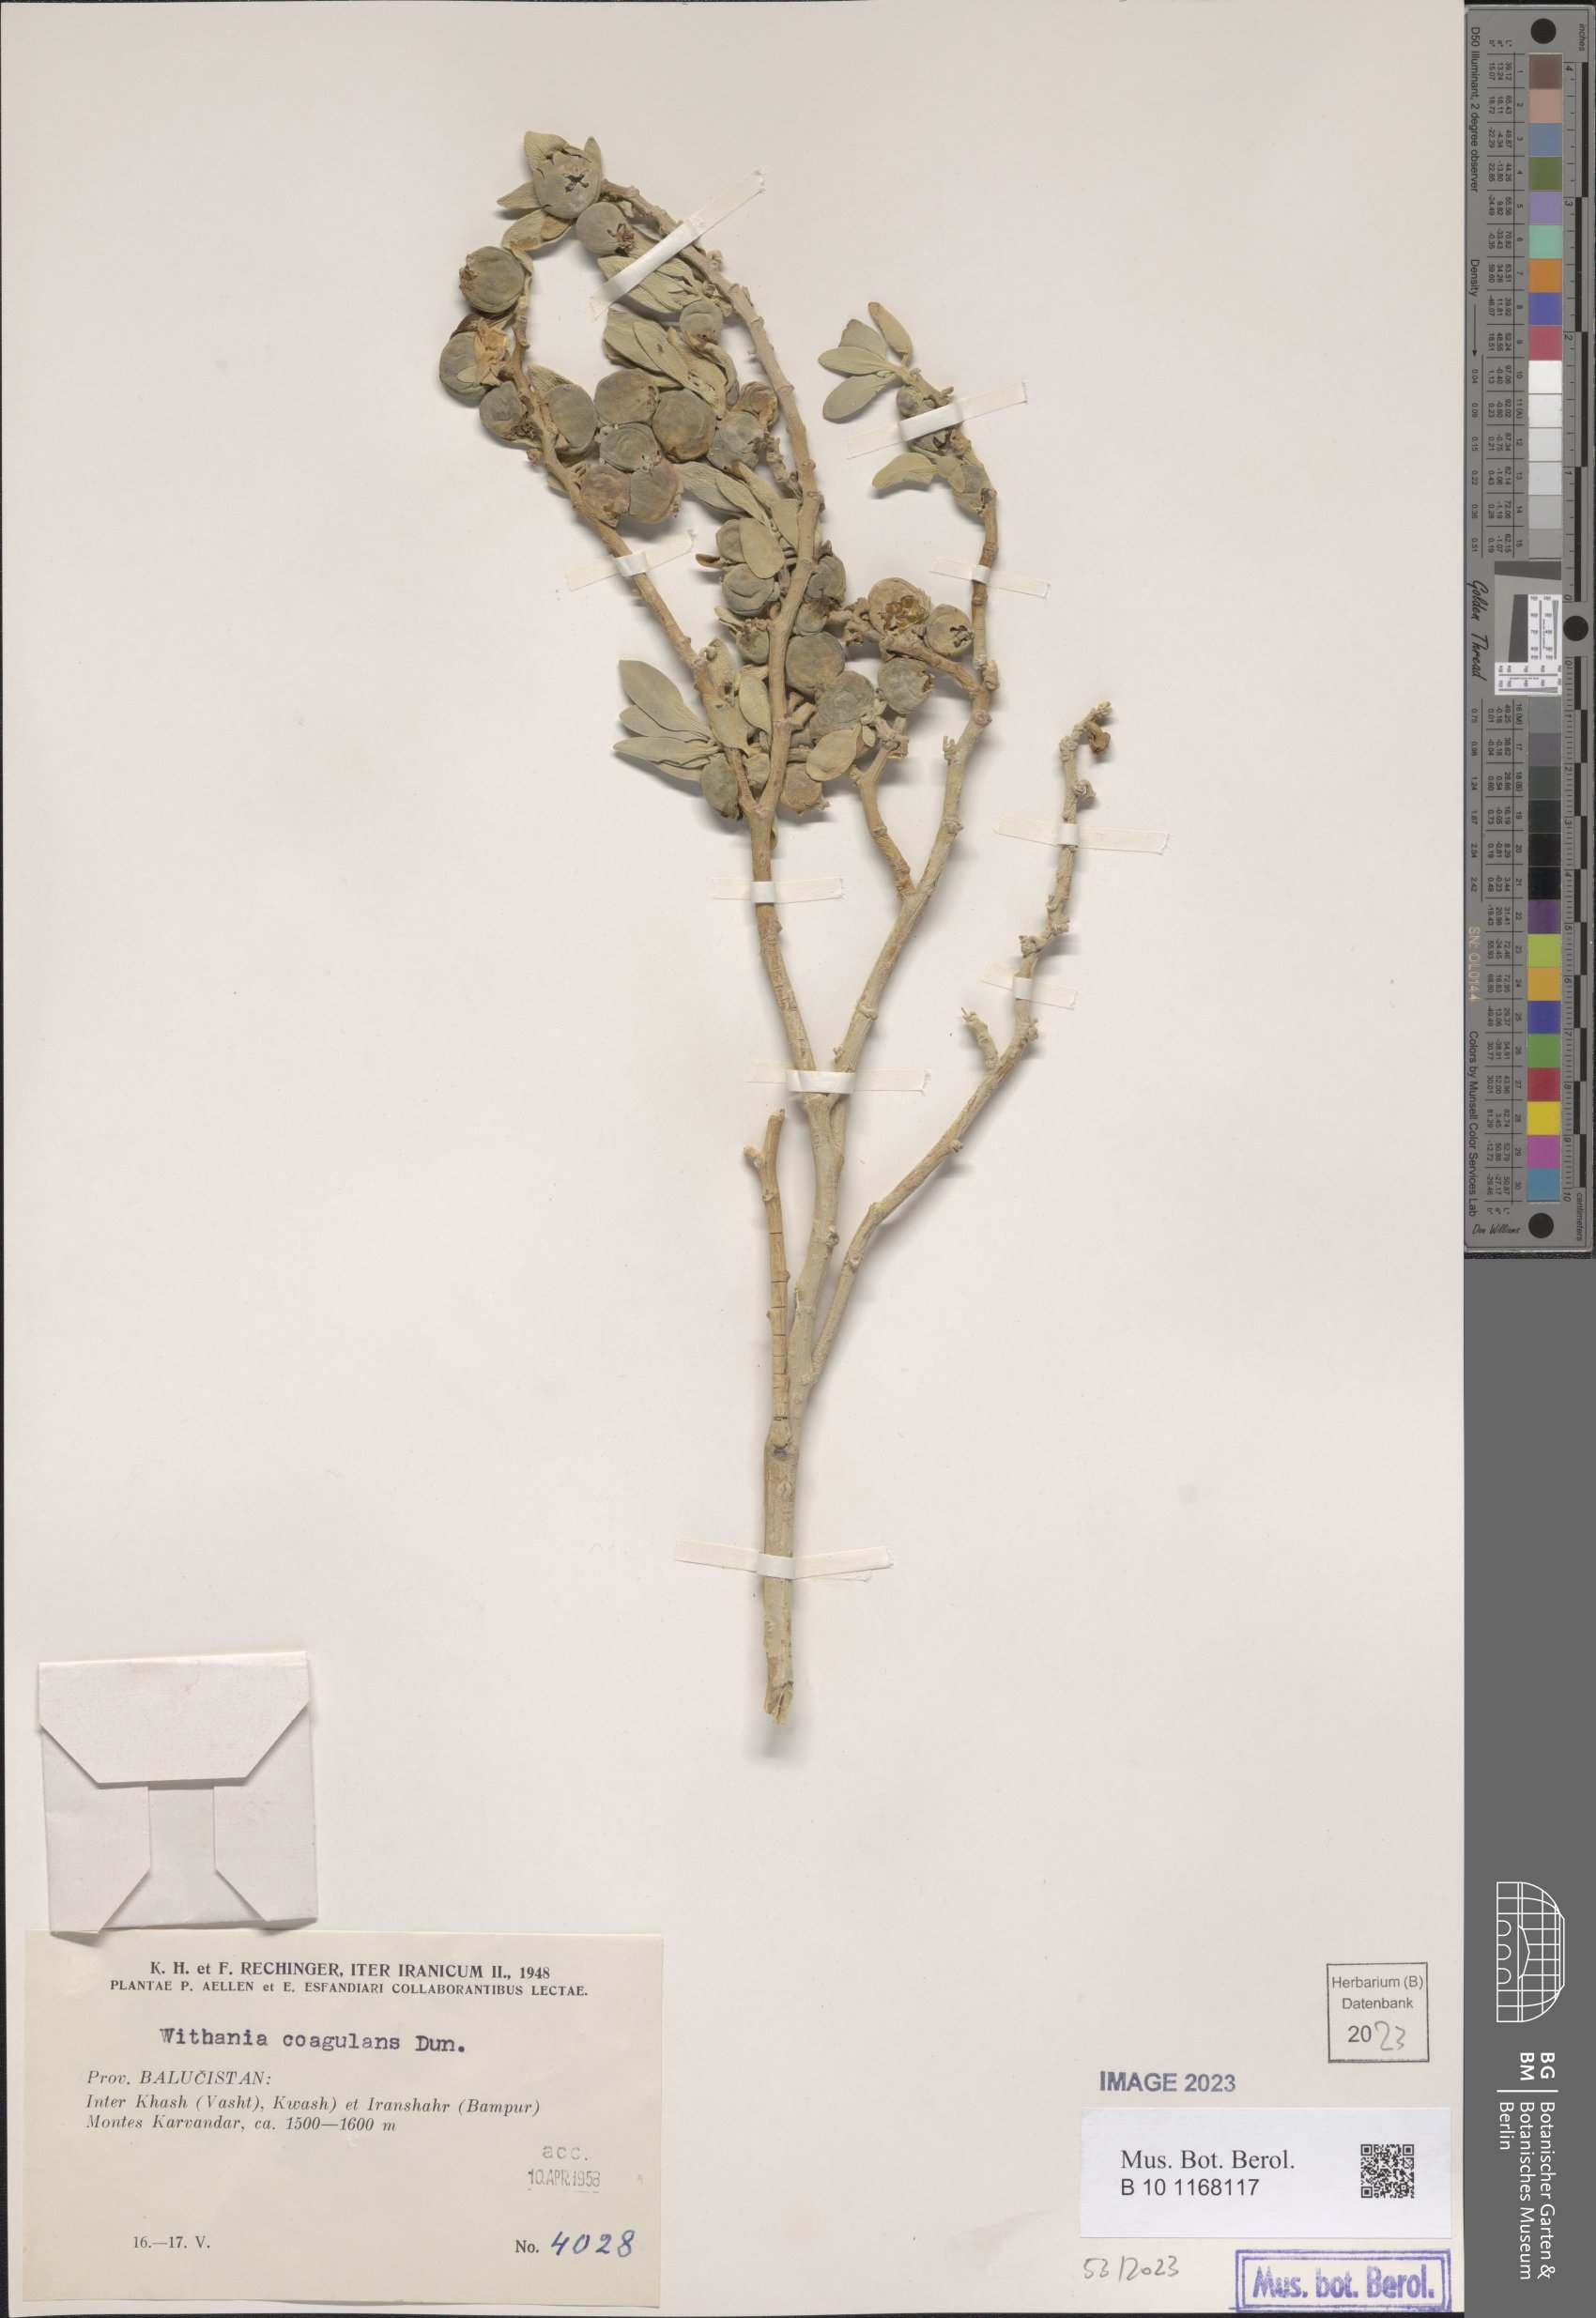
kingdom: Plantae
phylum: Tracheophyta
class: Magnoliopsida
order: Solanales
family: Solanaceae
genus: Withania
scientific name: Withania coagulans
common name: Vegetable rennet
